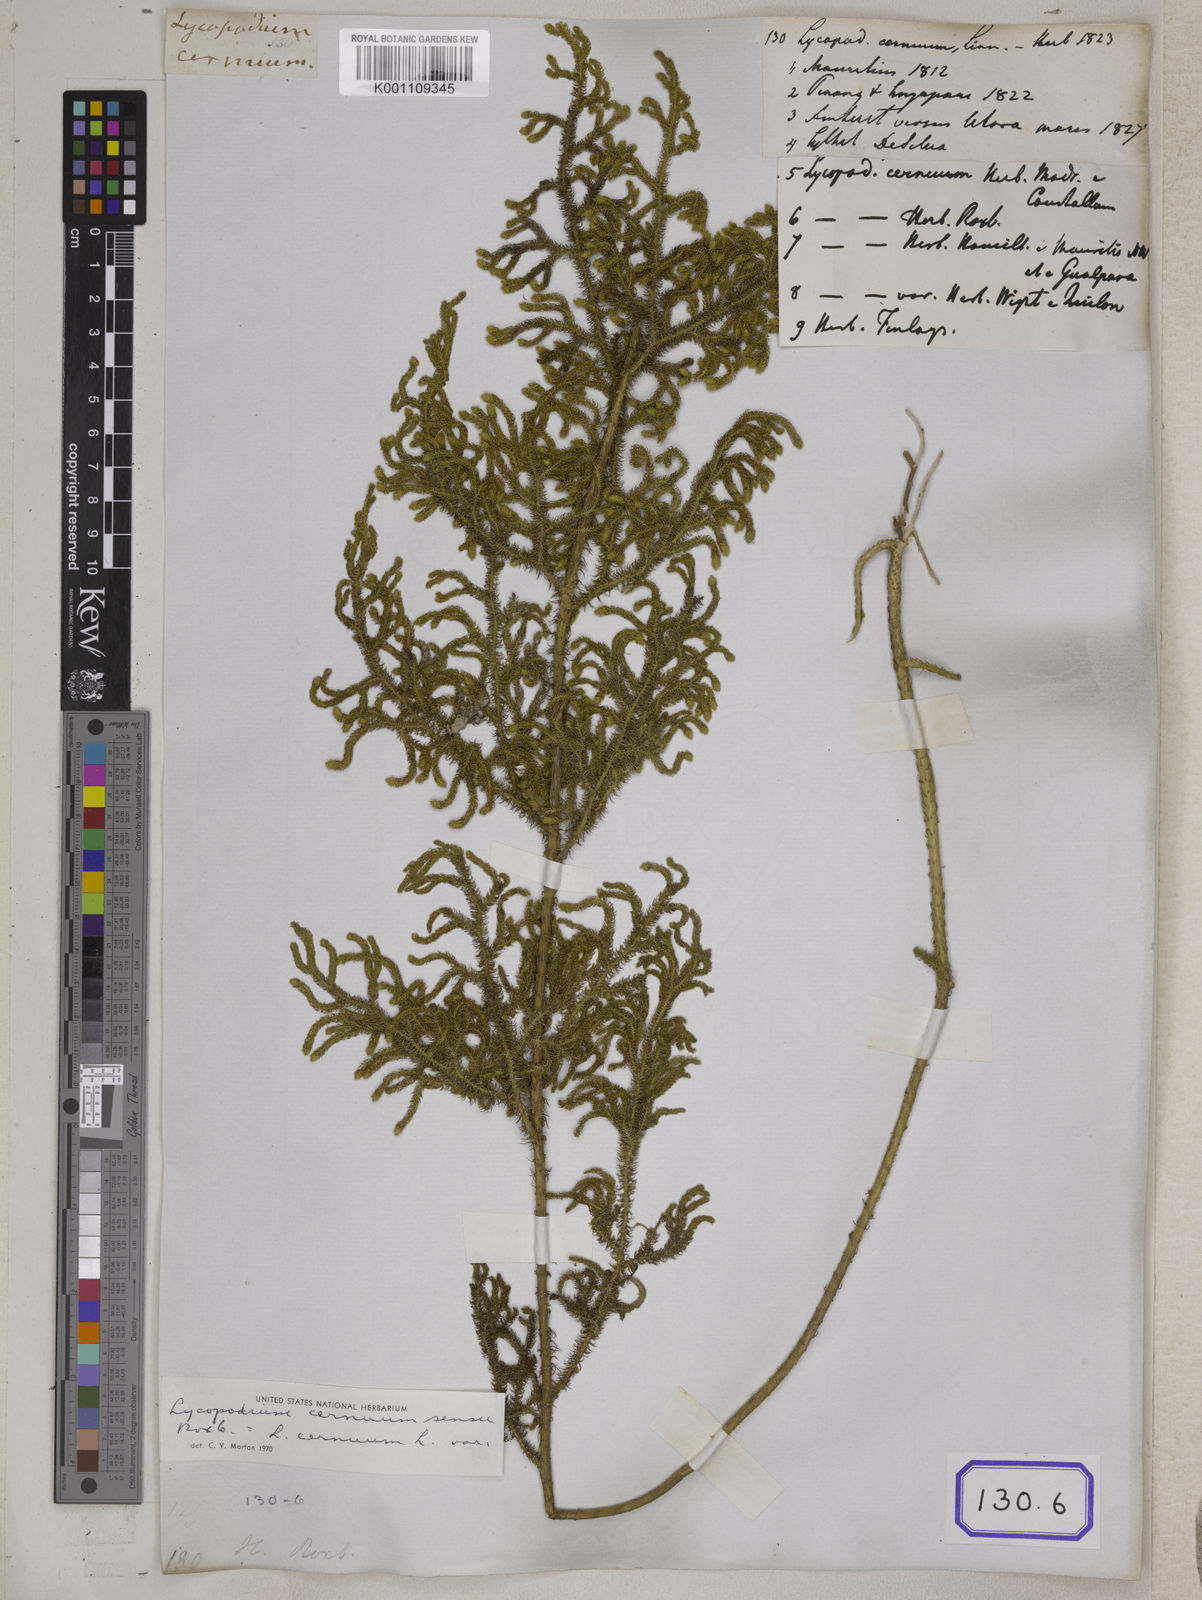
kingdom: Plantae
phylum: Tracheophyta
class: Lycopodiopsida
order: Lycopodiales
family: Lycopodiaceae
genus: Palhinhaea
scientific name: Palhinhaea cernua
